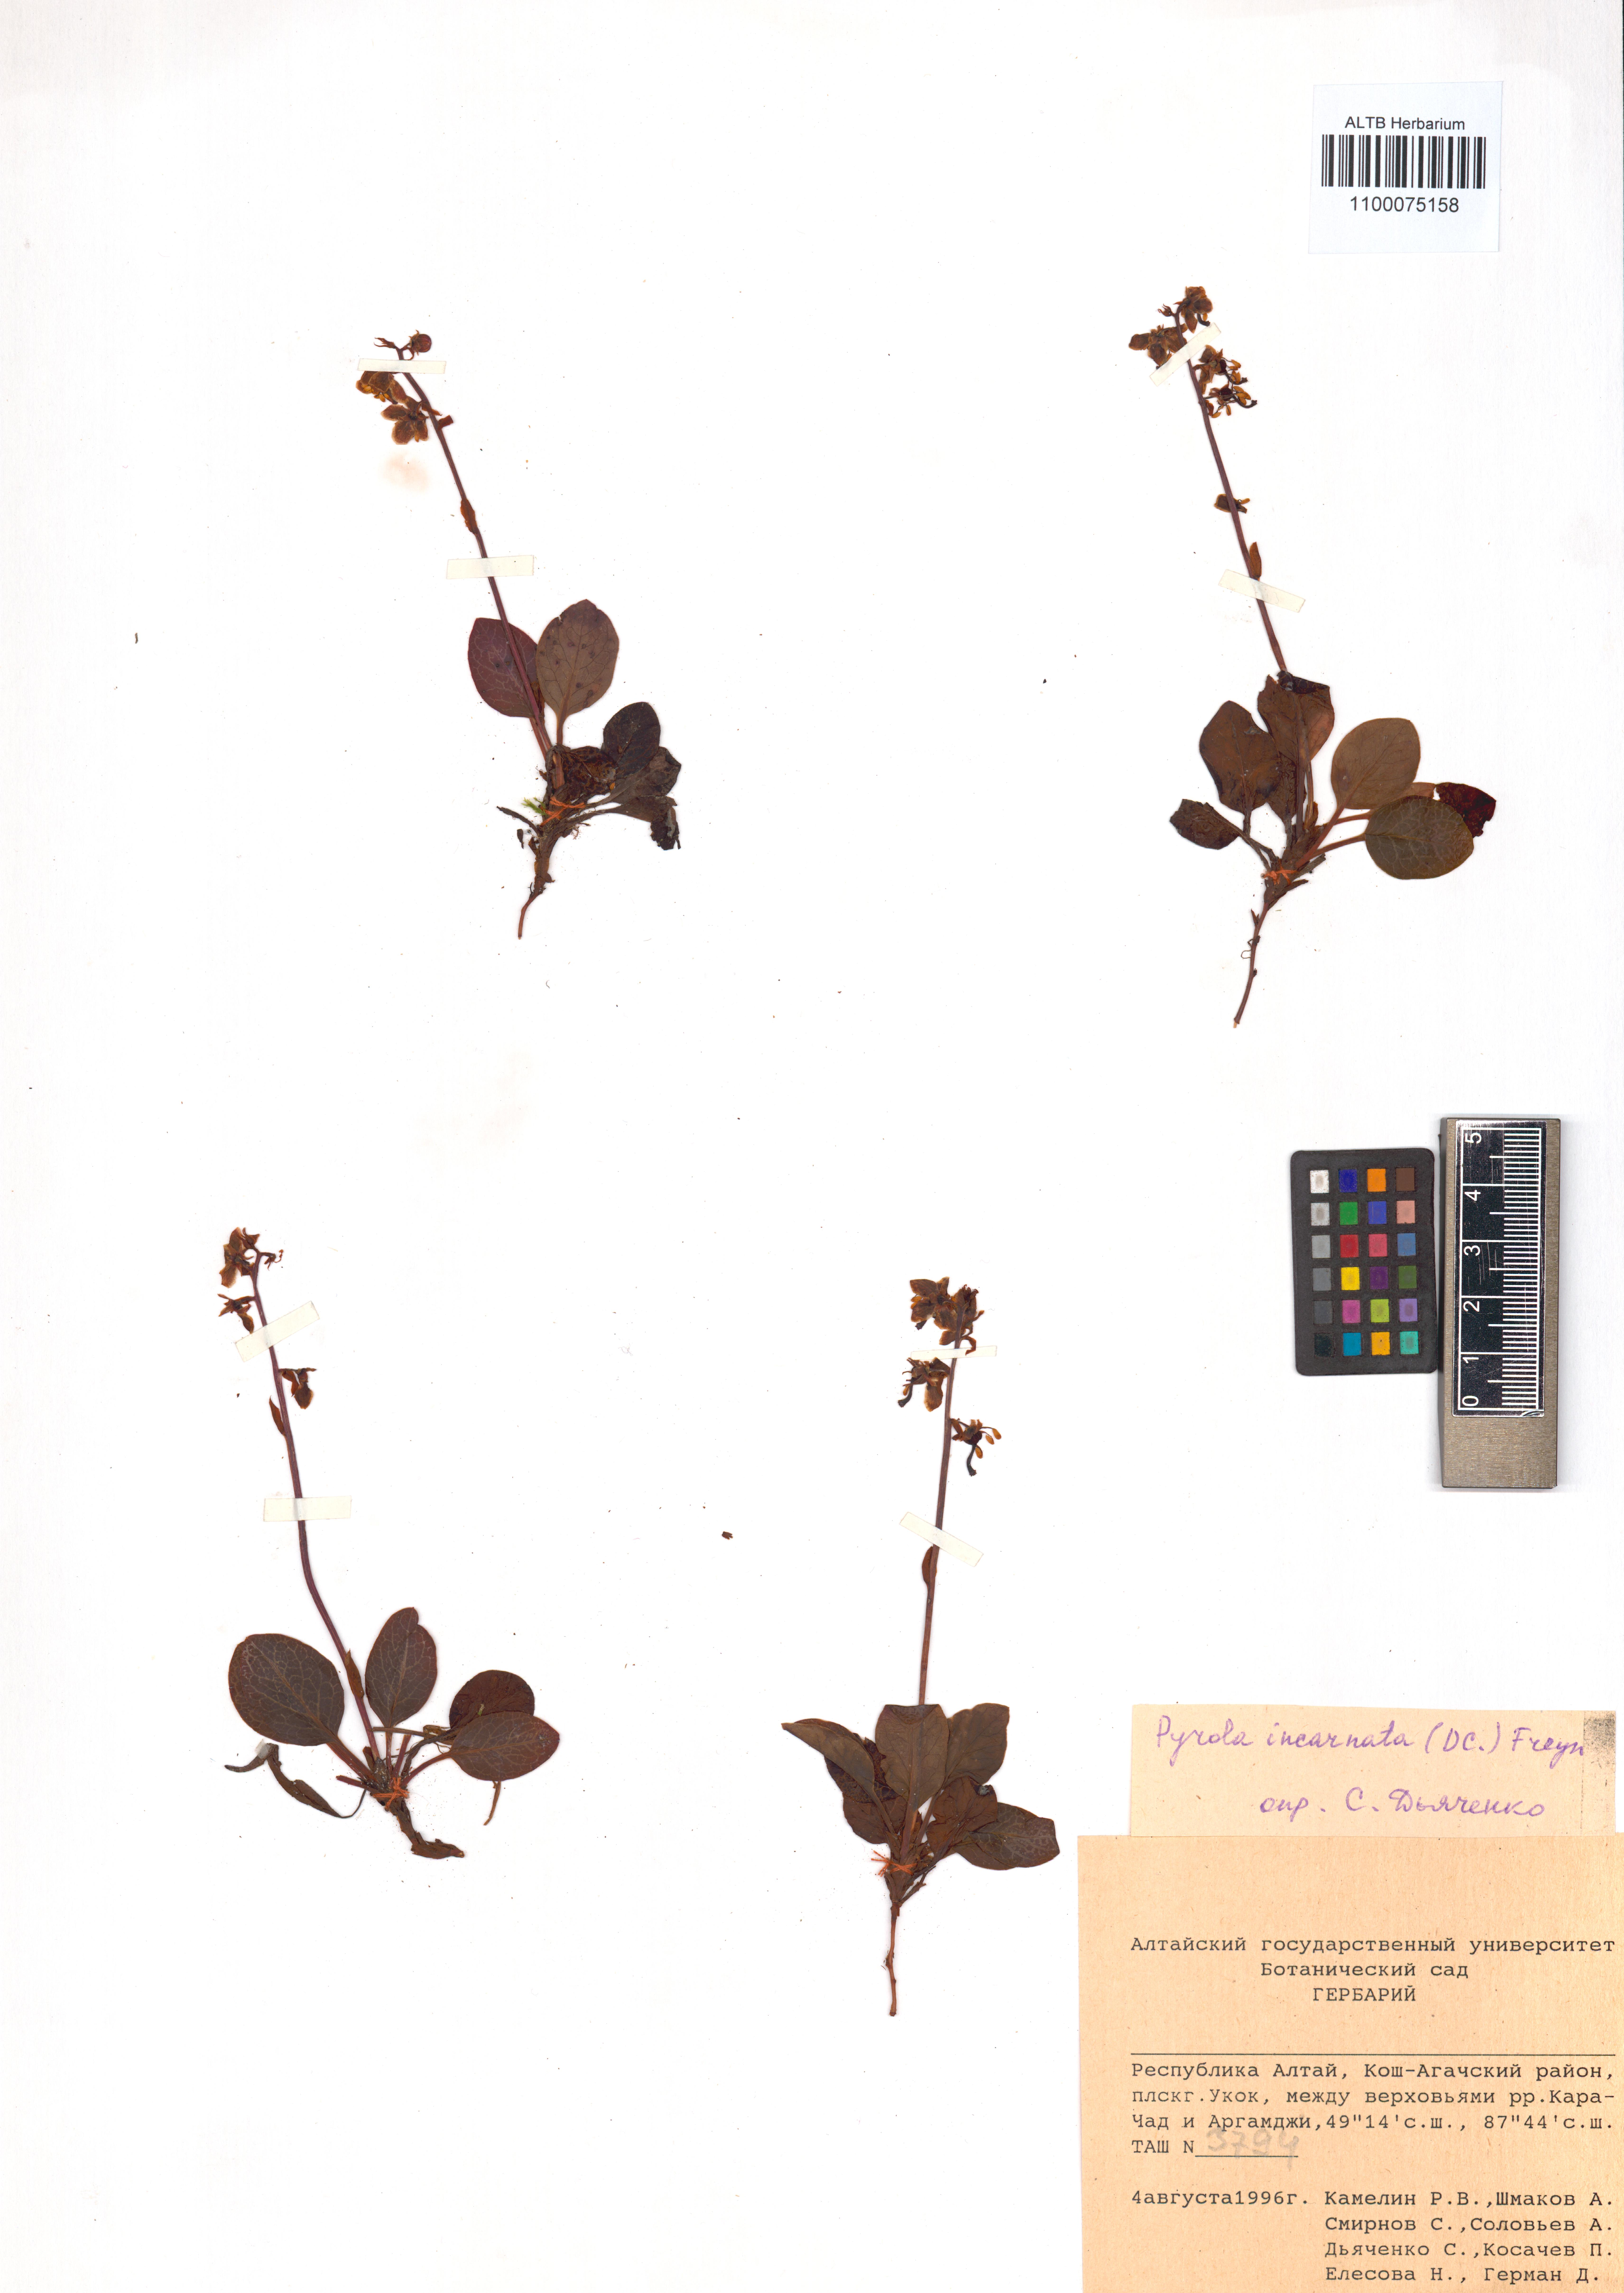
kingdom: Plantae
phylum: Tracheophyta
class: Magnoliopsida
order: Ericales
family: Ericaceae
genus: Pyrola
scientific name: Pyrola asarifolia
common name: Bog wintergreen
